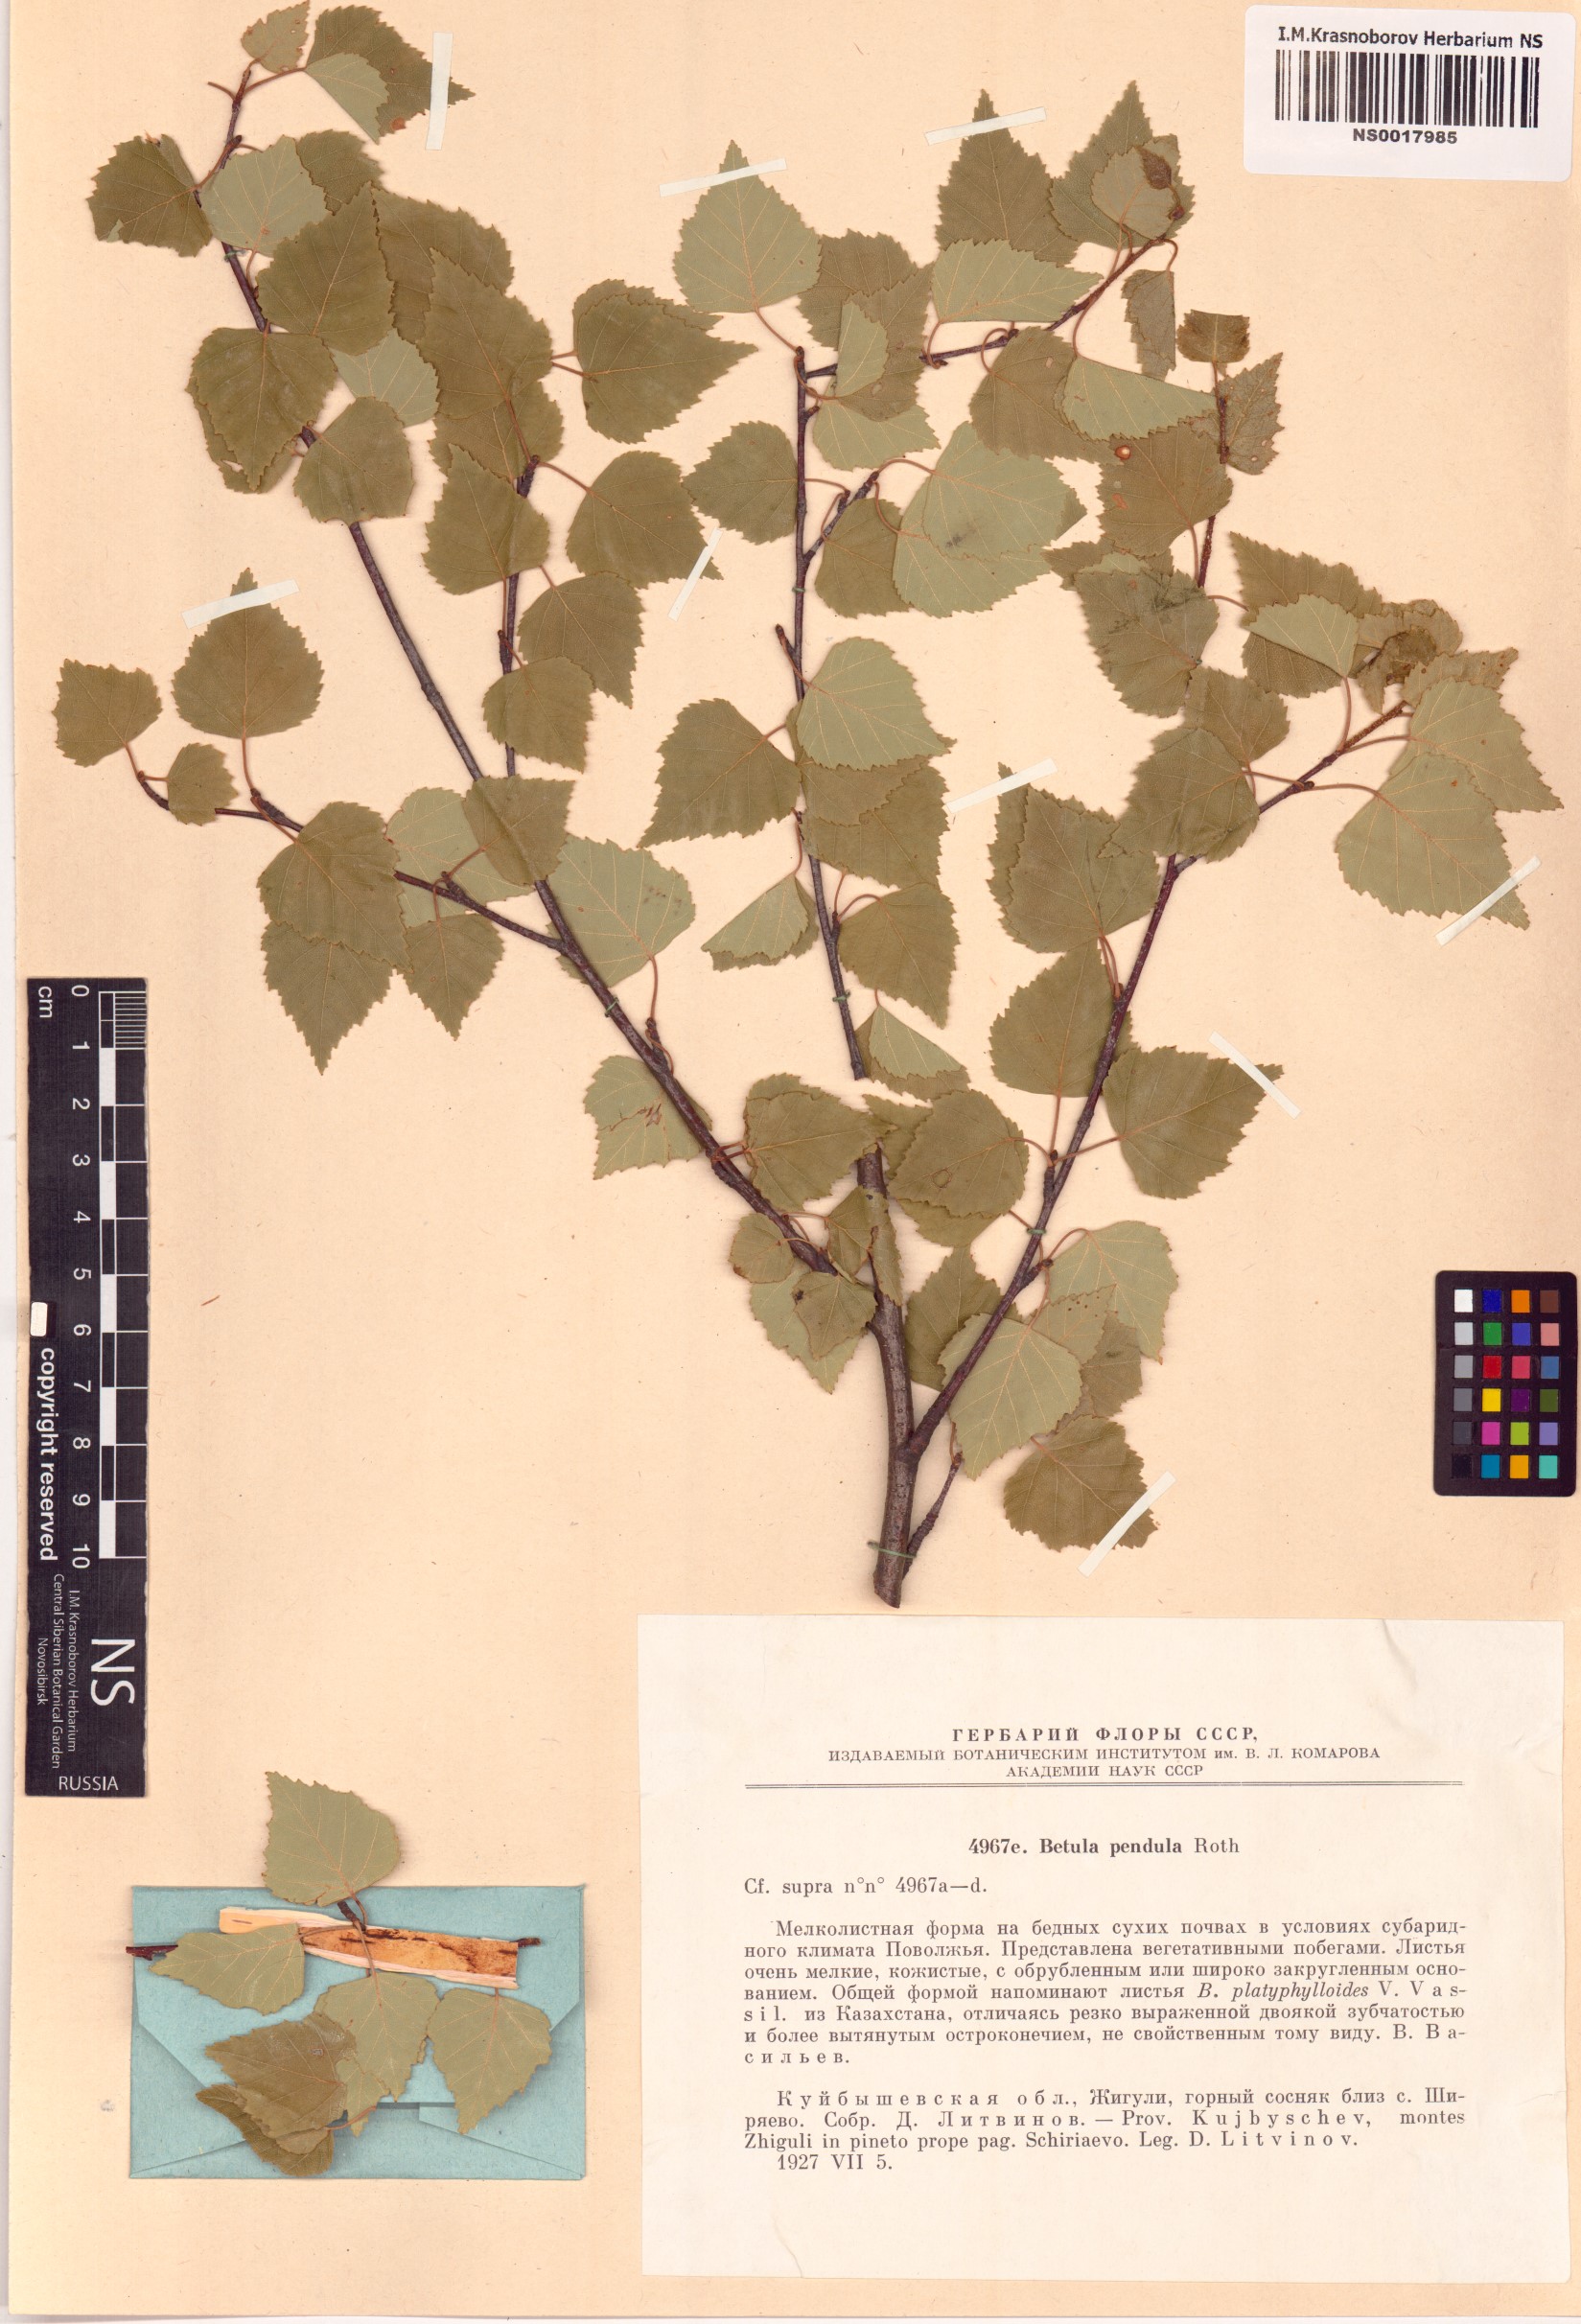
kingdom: Plantae
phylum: Tracheophyta
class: Magnoliopsida
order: Fagales
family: Betulaceae
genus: Betula
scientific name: Betula pendula
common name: Silver birch
